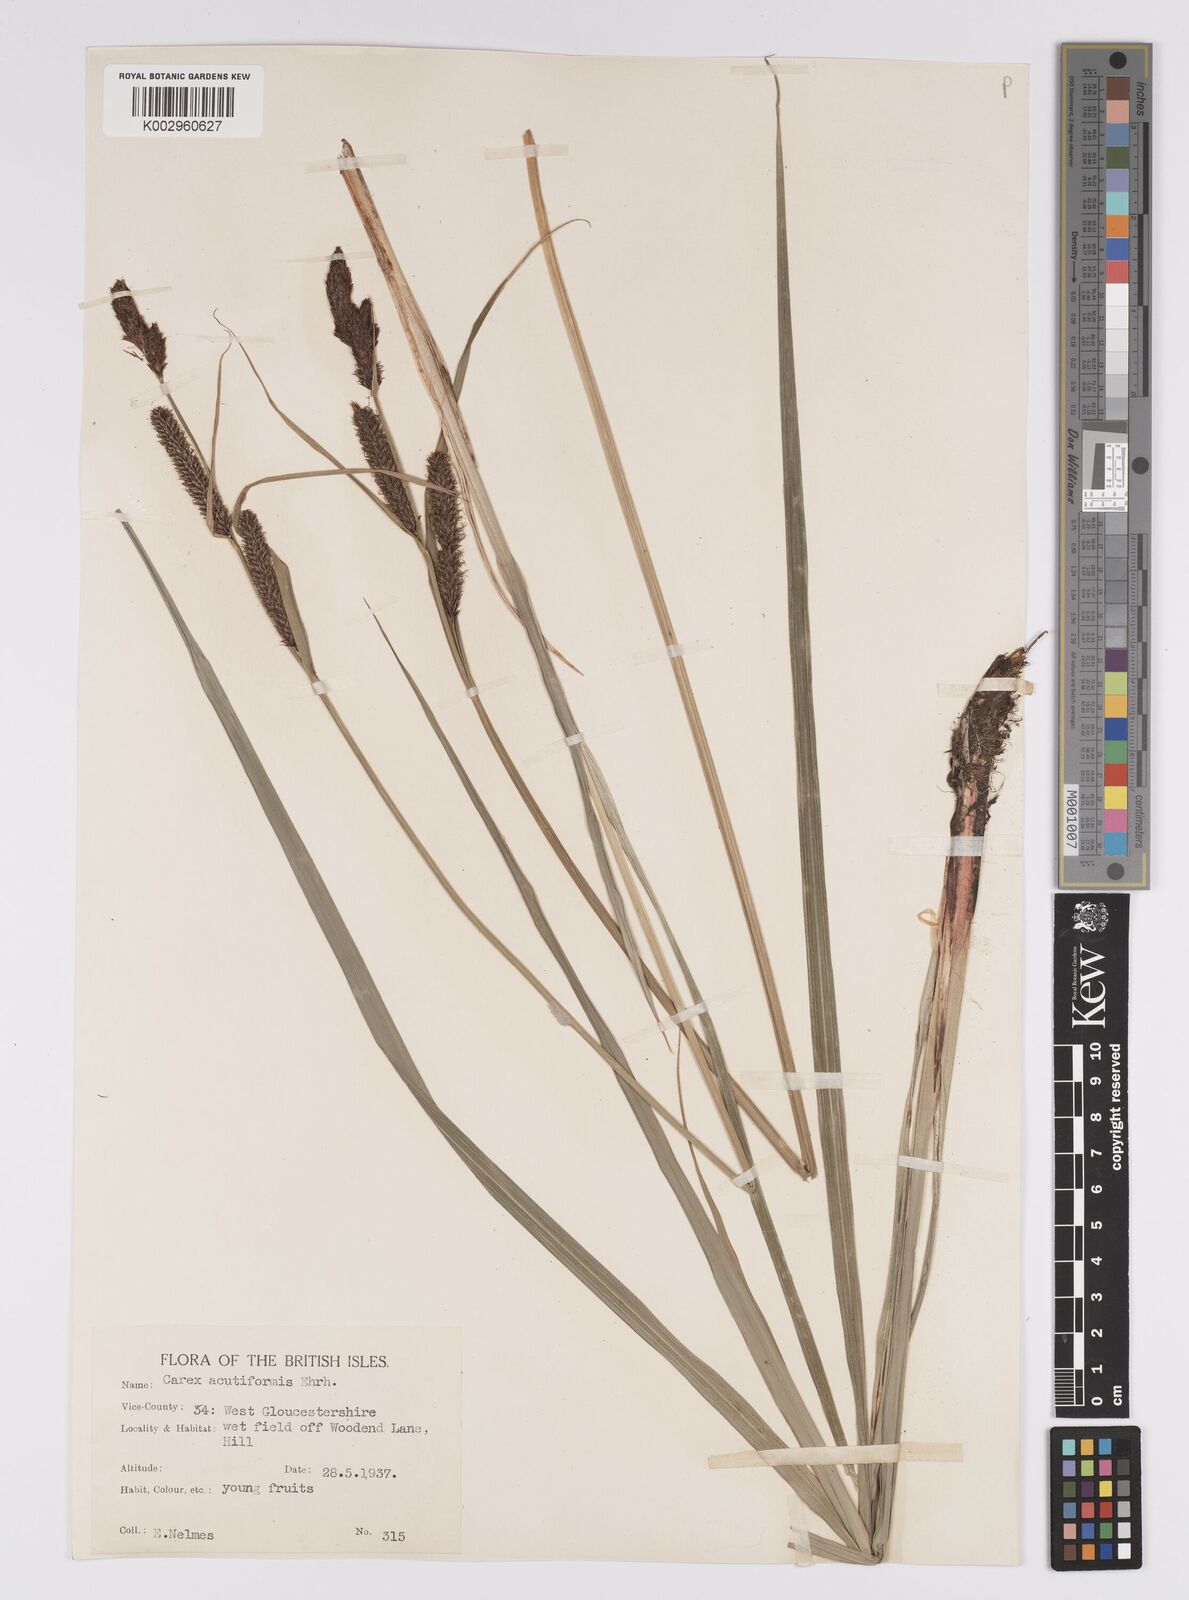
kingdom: Plantae
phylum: Tracheophyta
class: Liliopsida
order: Poales
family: Cyperaceae
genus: Carex
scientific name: Carex acutiformis
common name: Lesser pond-sedge
